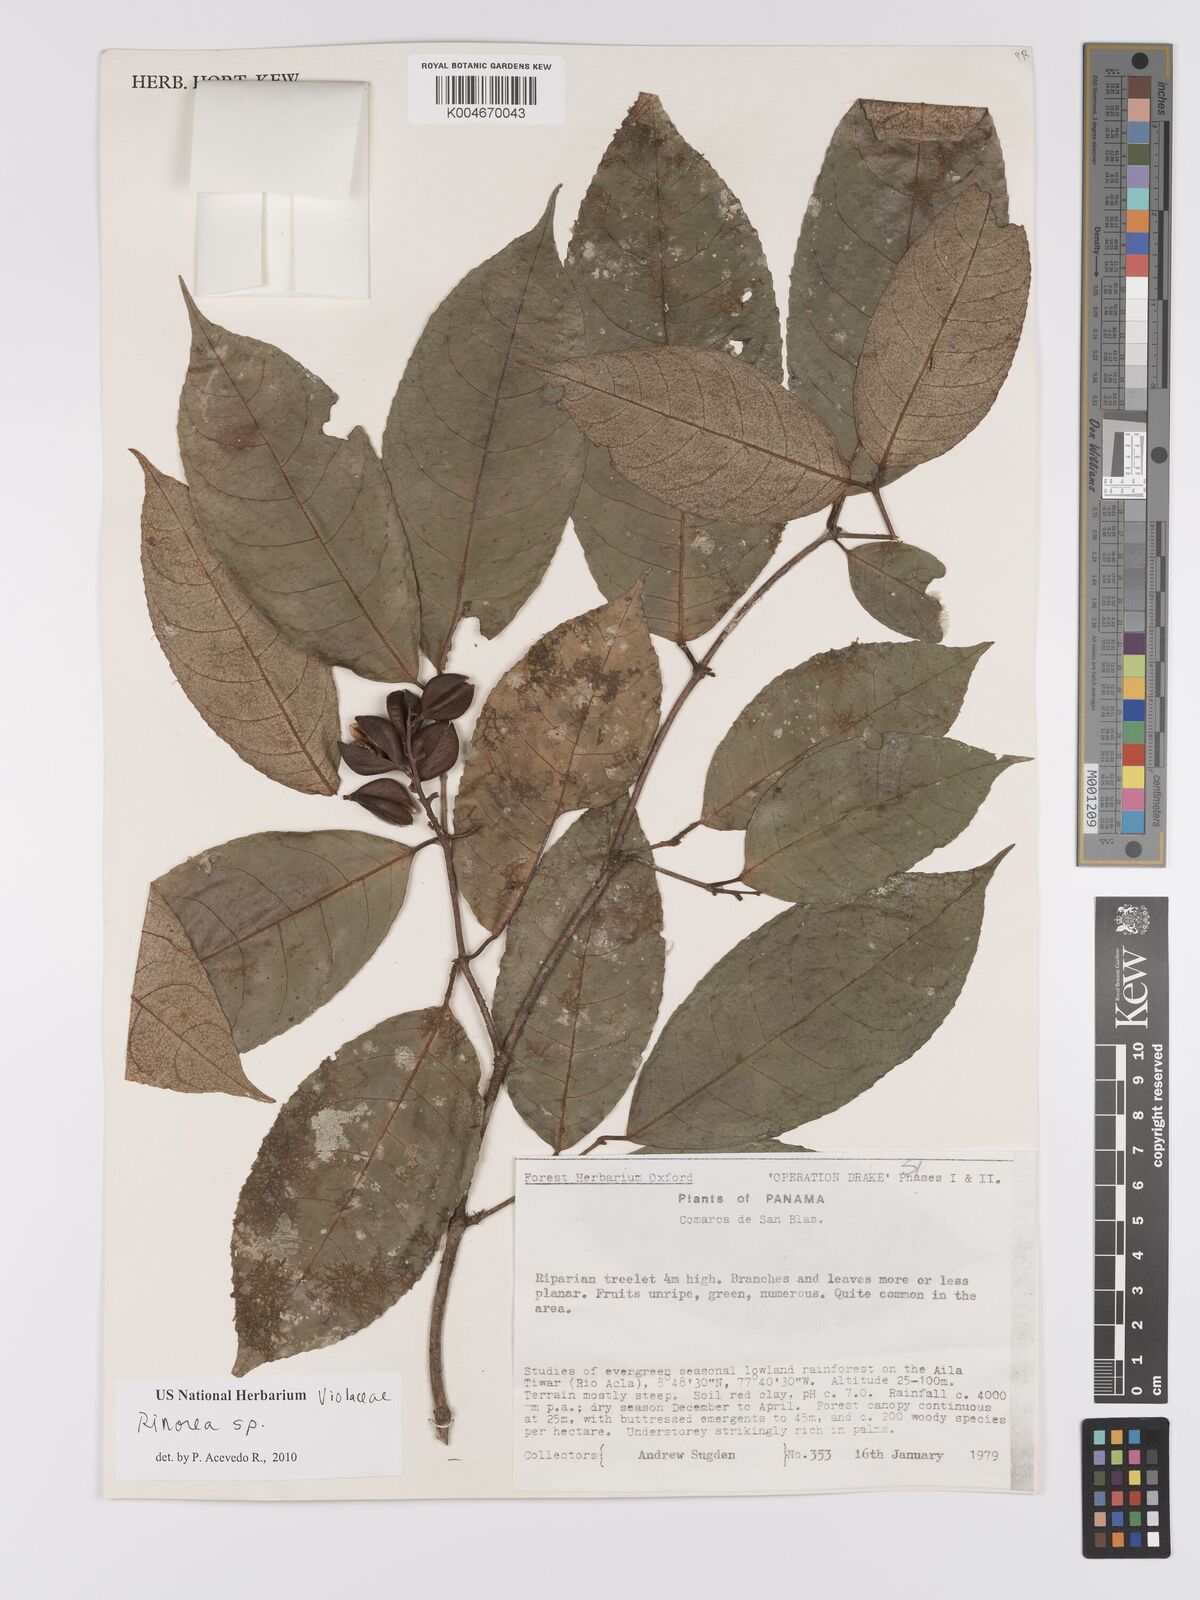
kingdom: Plantae
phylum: Tracheophyta
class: Magnoliopsida
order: Malpighiales
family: Violaceae
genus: Rinorea
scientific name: Rinorea
